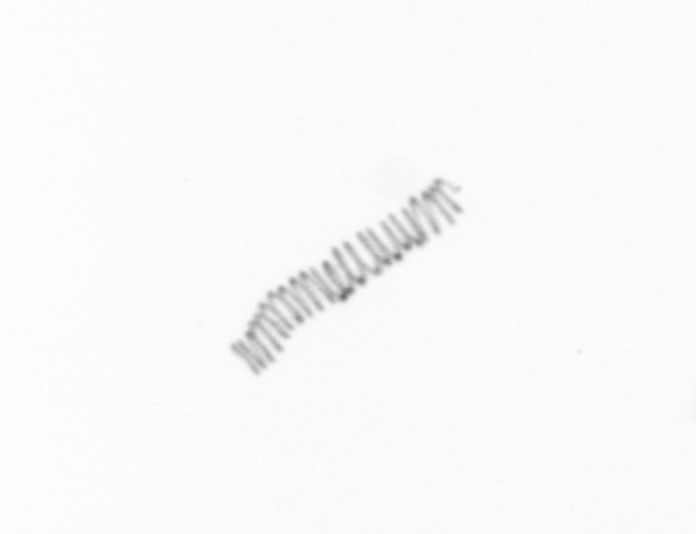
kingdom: Chromista
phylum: Ochrophyta
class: Bacillariophyceae
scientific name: Bacillariophyceae
